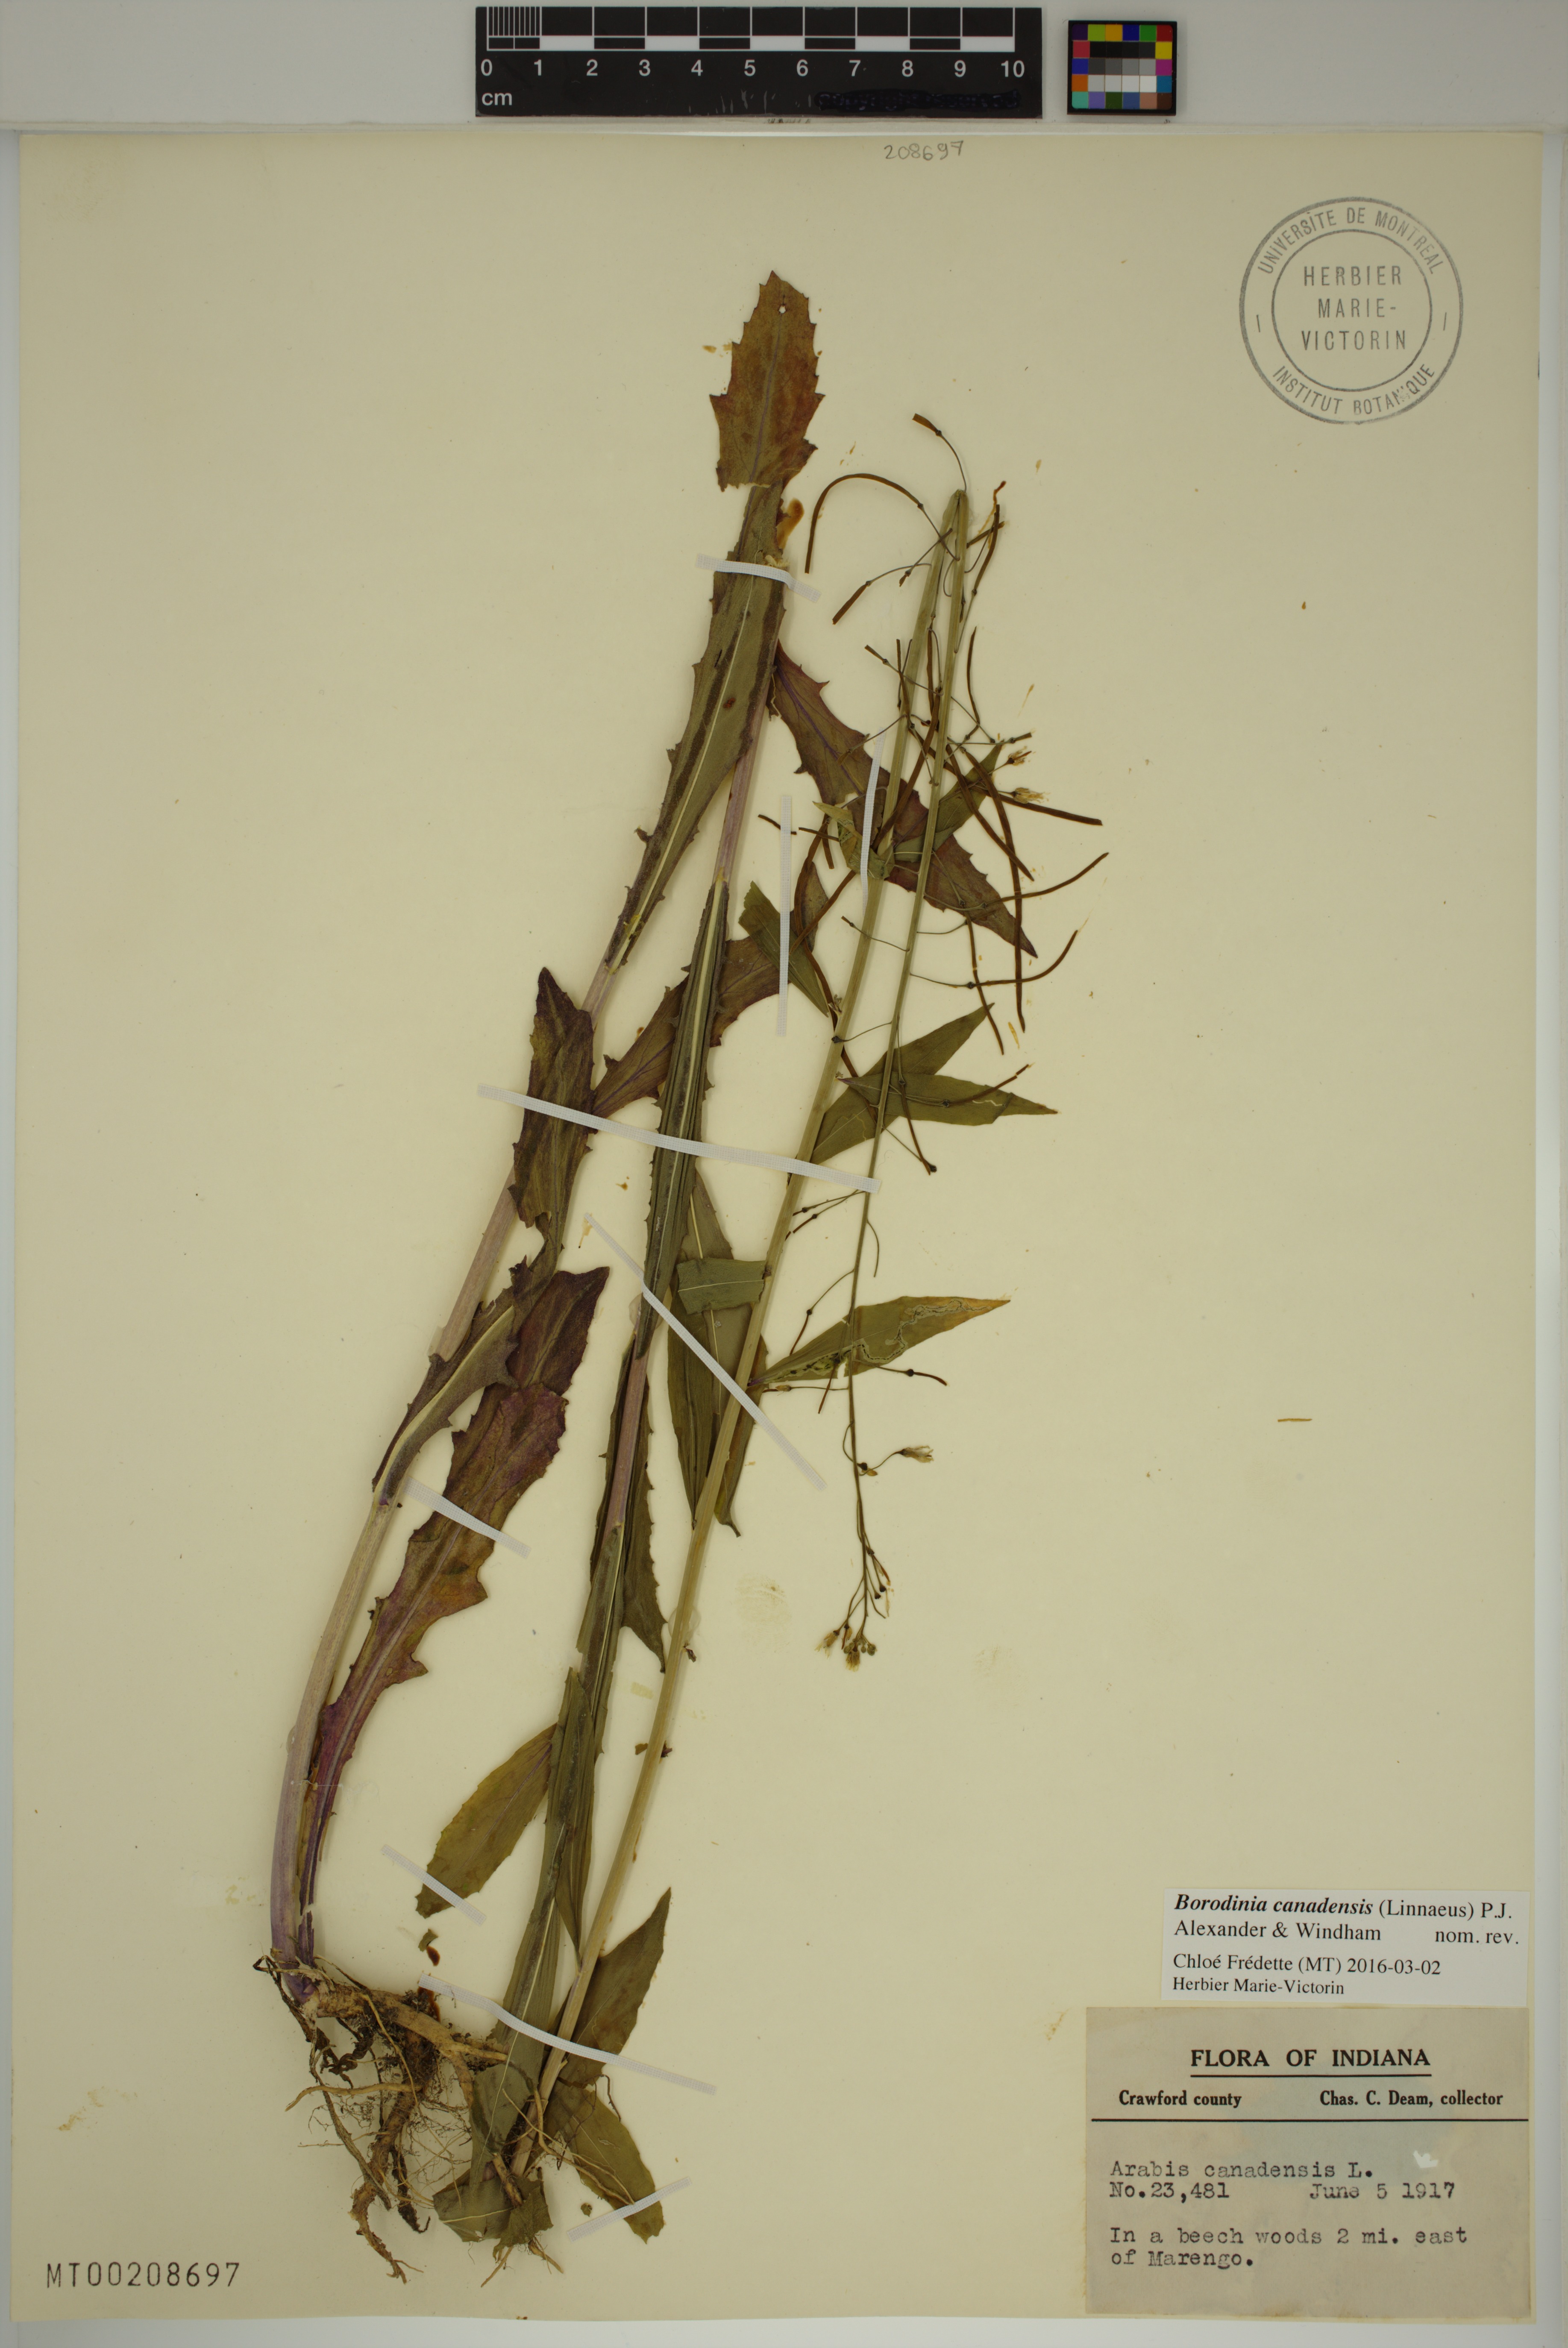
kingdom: Plantae
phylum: Tracheophyta
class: Magnoliopsida
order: Brassicales
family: Brassicaceae
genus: Borodinia
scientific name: Borodinia canadensis
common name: Sicklepod
